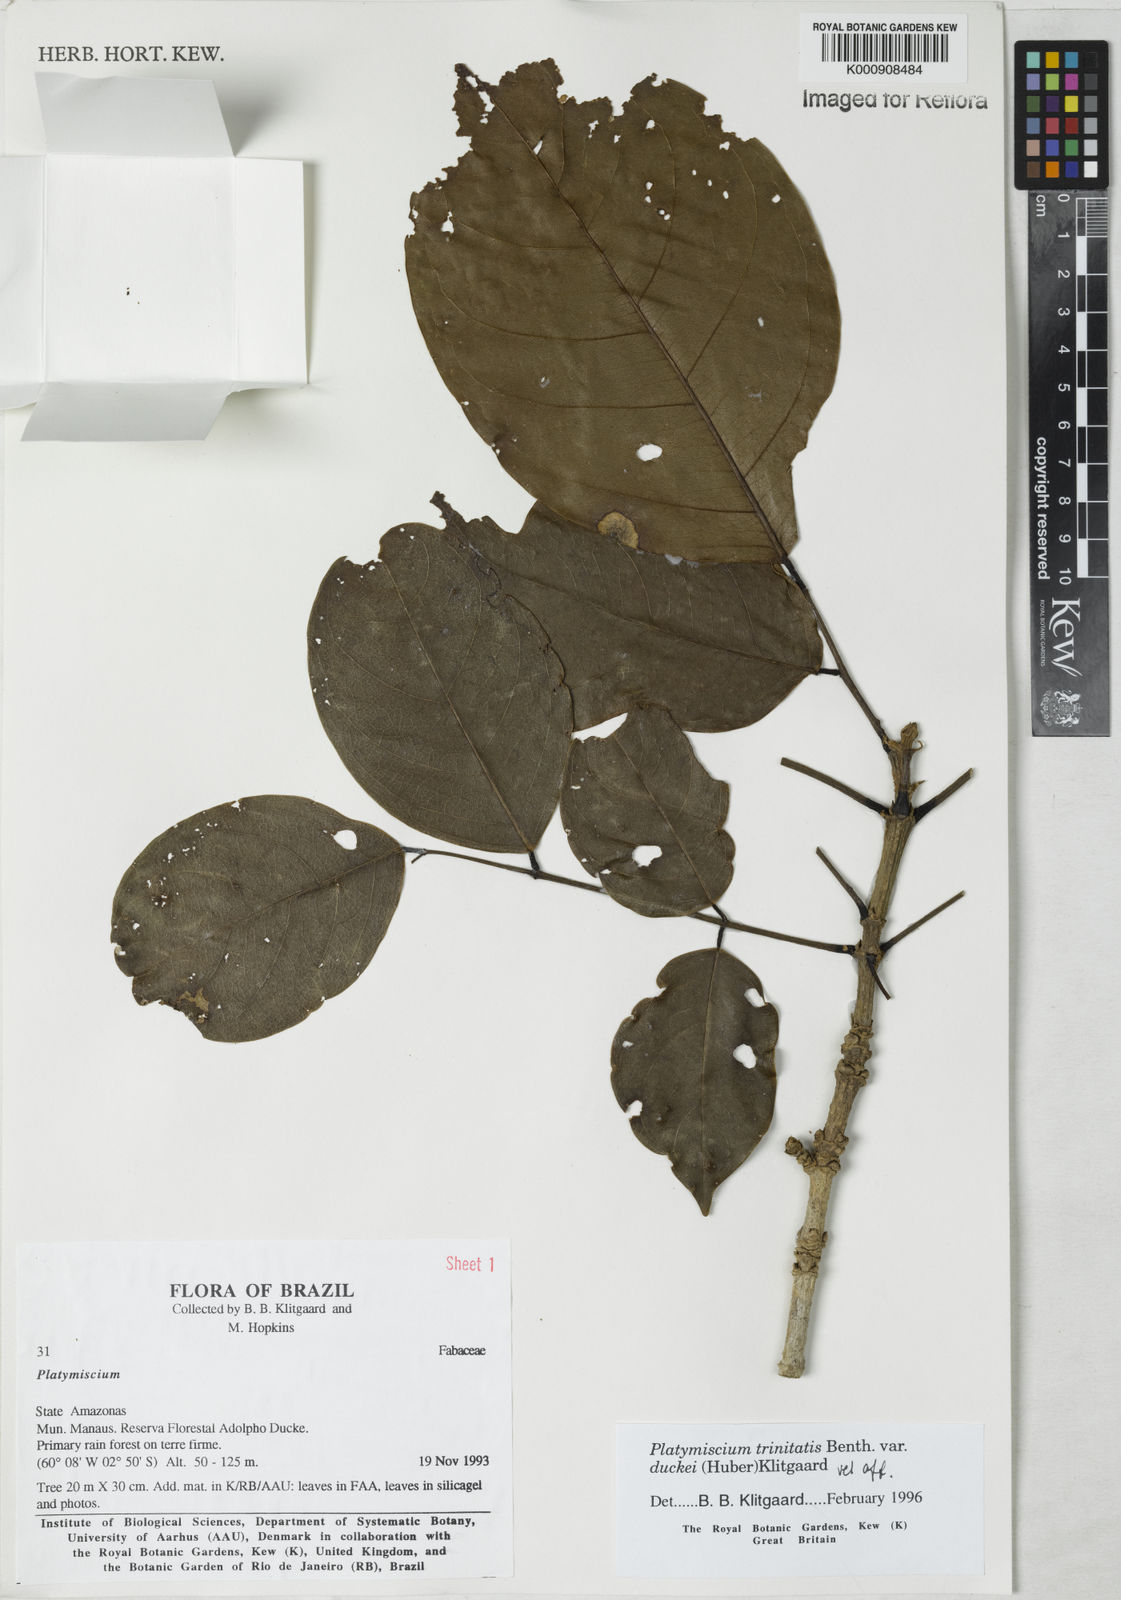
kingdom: Plantae
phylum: Tracheophyta
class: Magnoliopsida
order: Fabales
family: Fabaceae
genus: Platymiscium
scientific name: Platymiscium trinitatis
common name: Trinidad macawood
